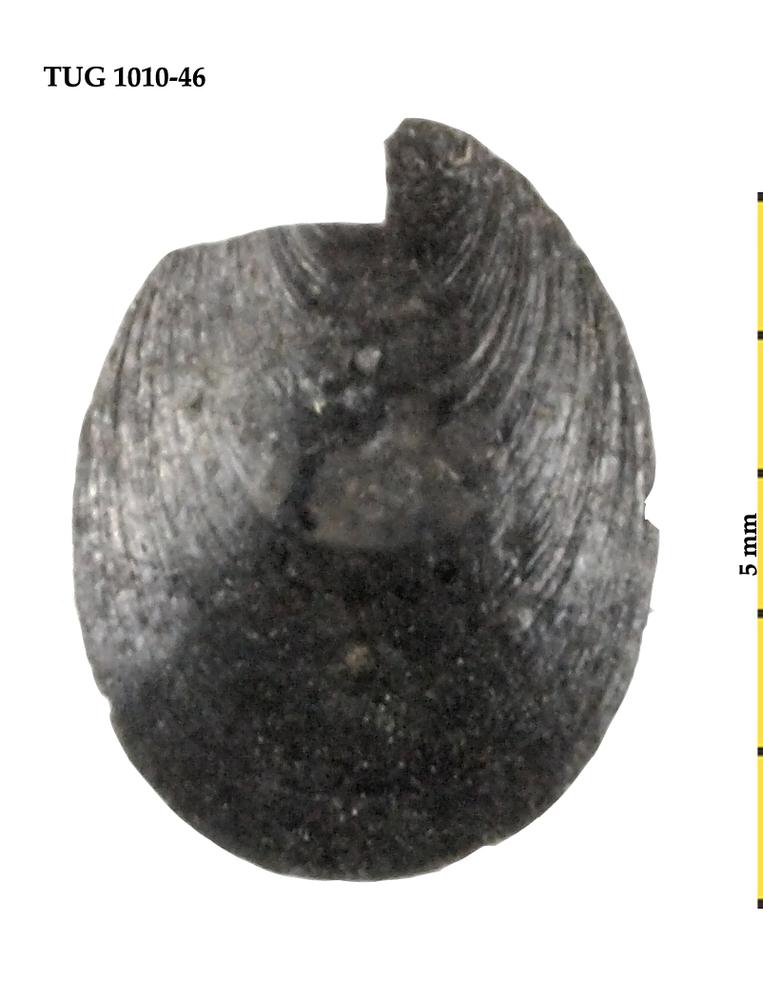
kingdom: Animalia
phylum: Brachiopoda
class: Lingulata
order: Lingulida
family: Obolidae
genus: Oepikites
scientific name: Oepikites Obolus obtusus
